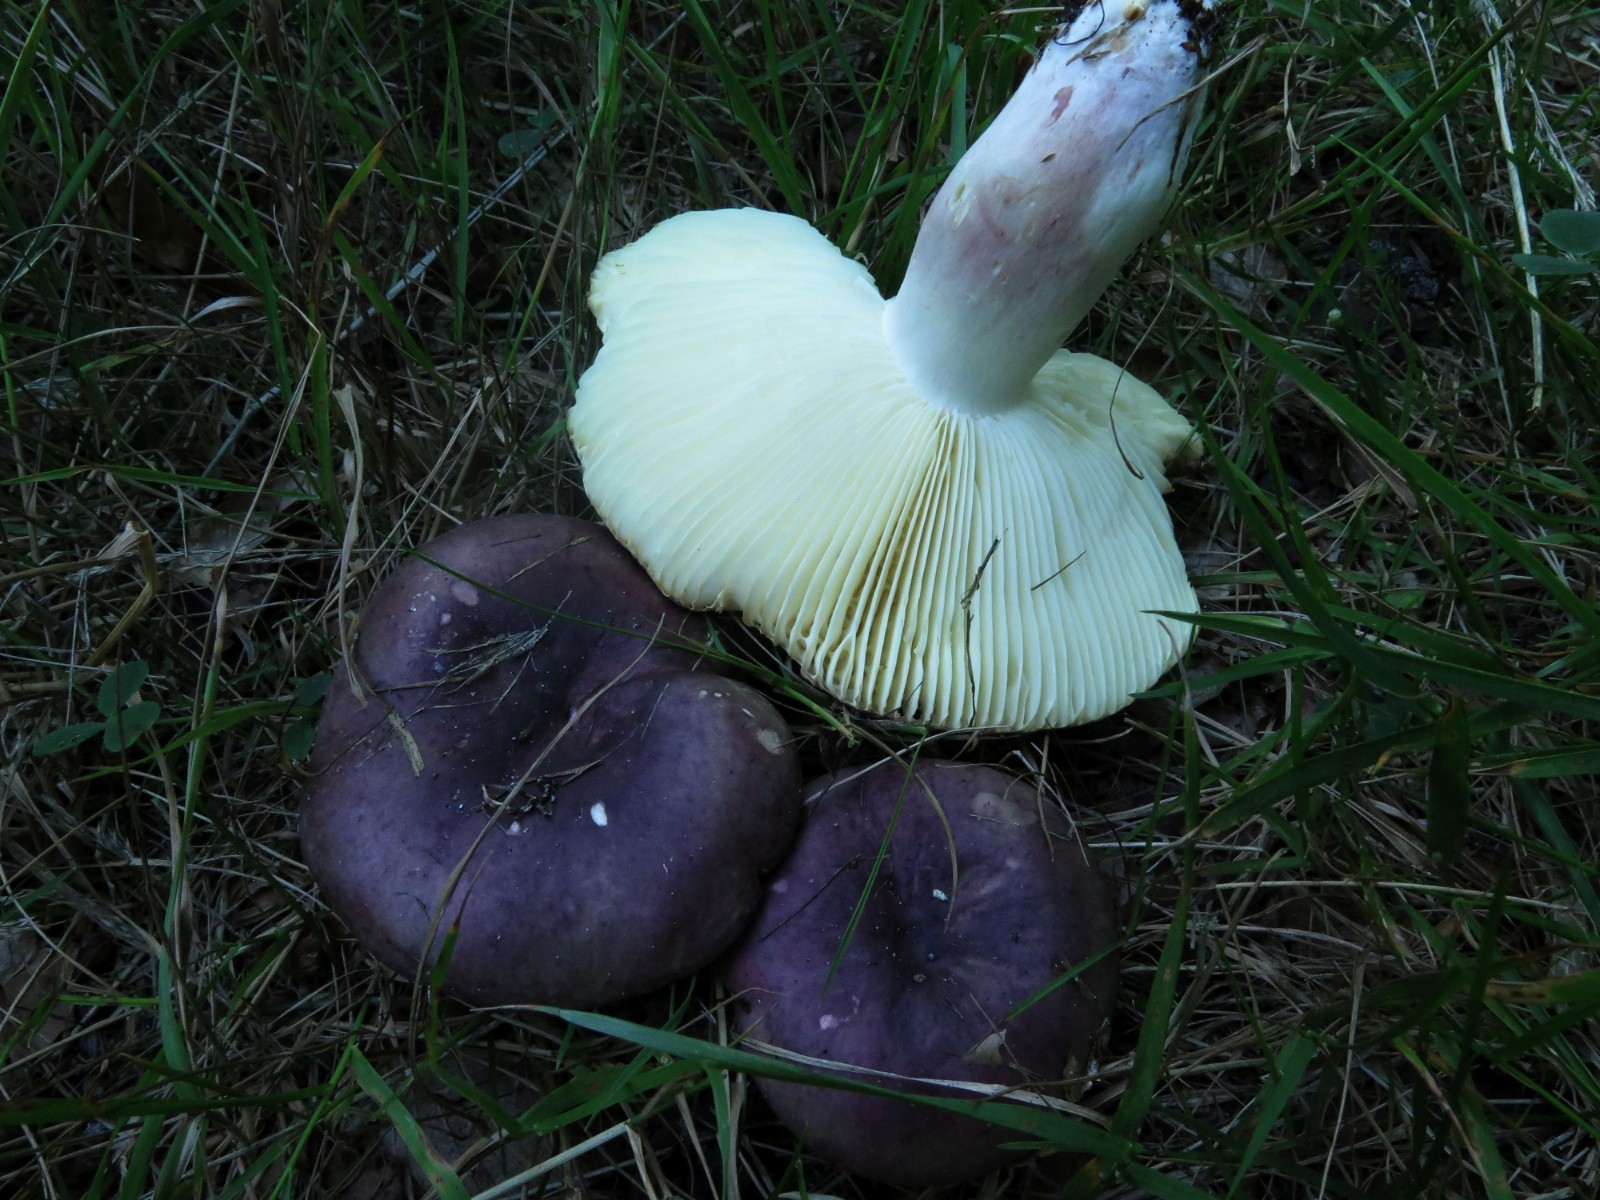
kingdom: Fungi
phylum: Basidiomycota
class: Agaricomycetes
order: Russulales
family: Russulaceae
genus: Russula
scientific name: Russula sardonia
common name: citronbladet skørhat
